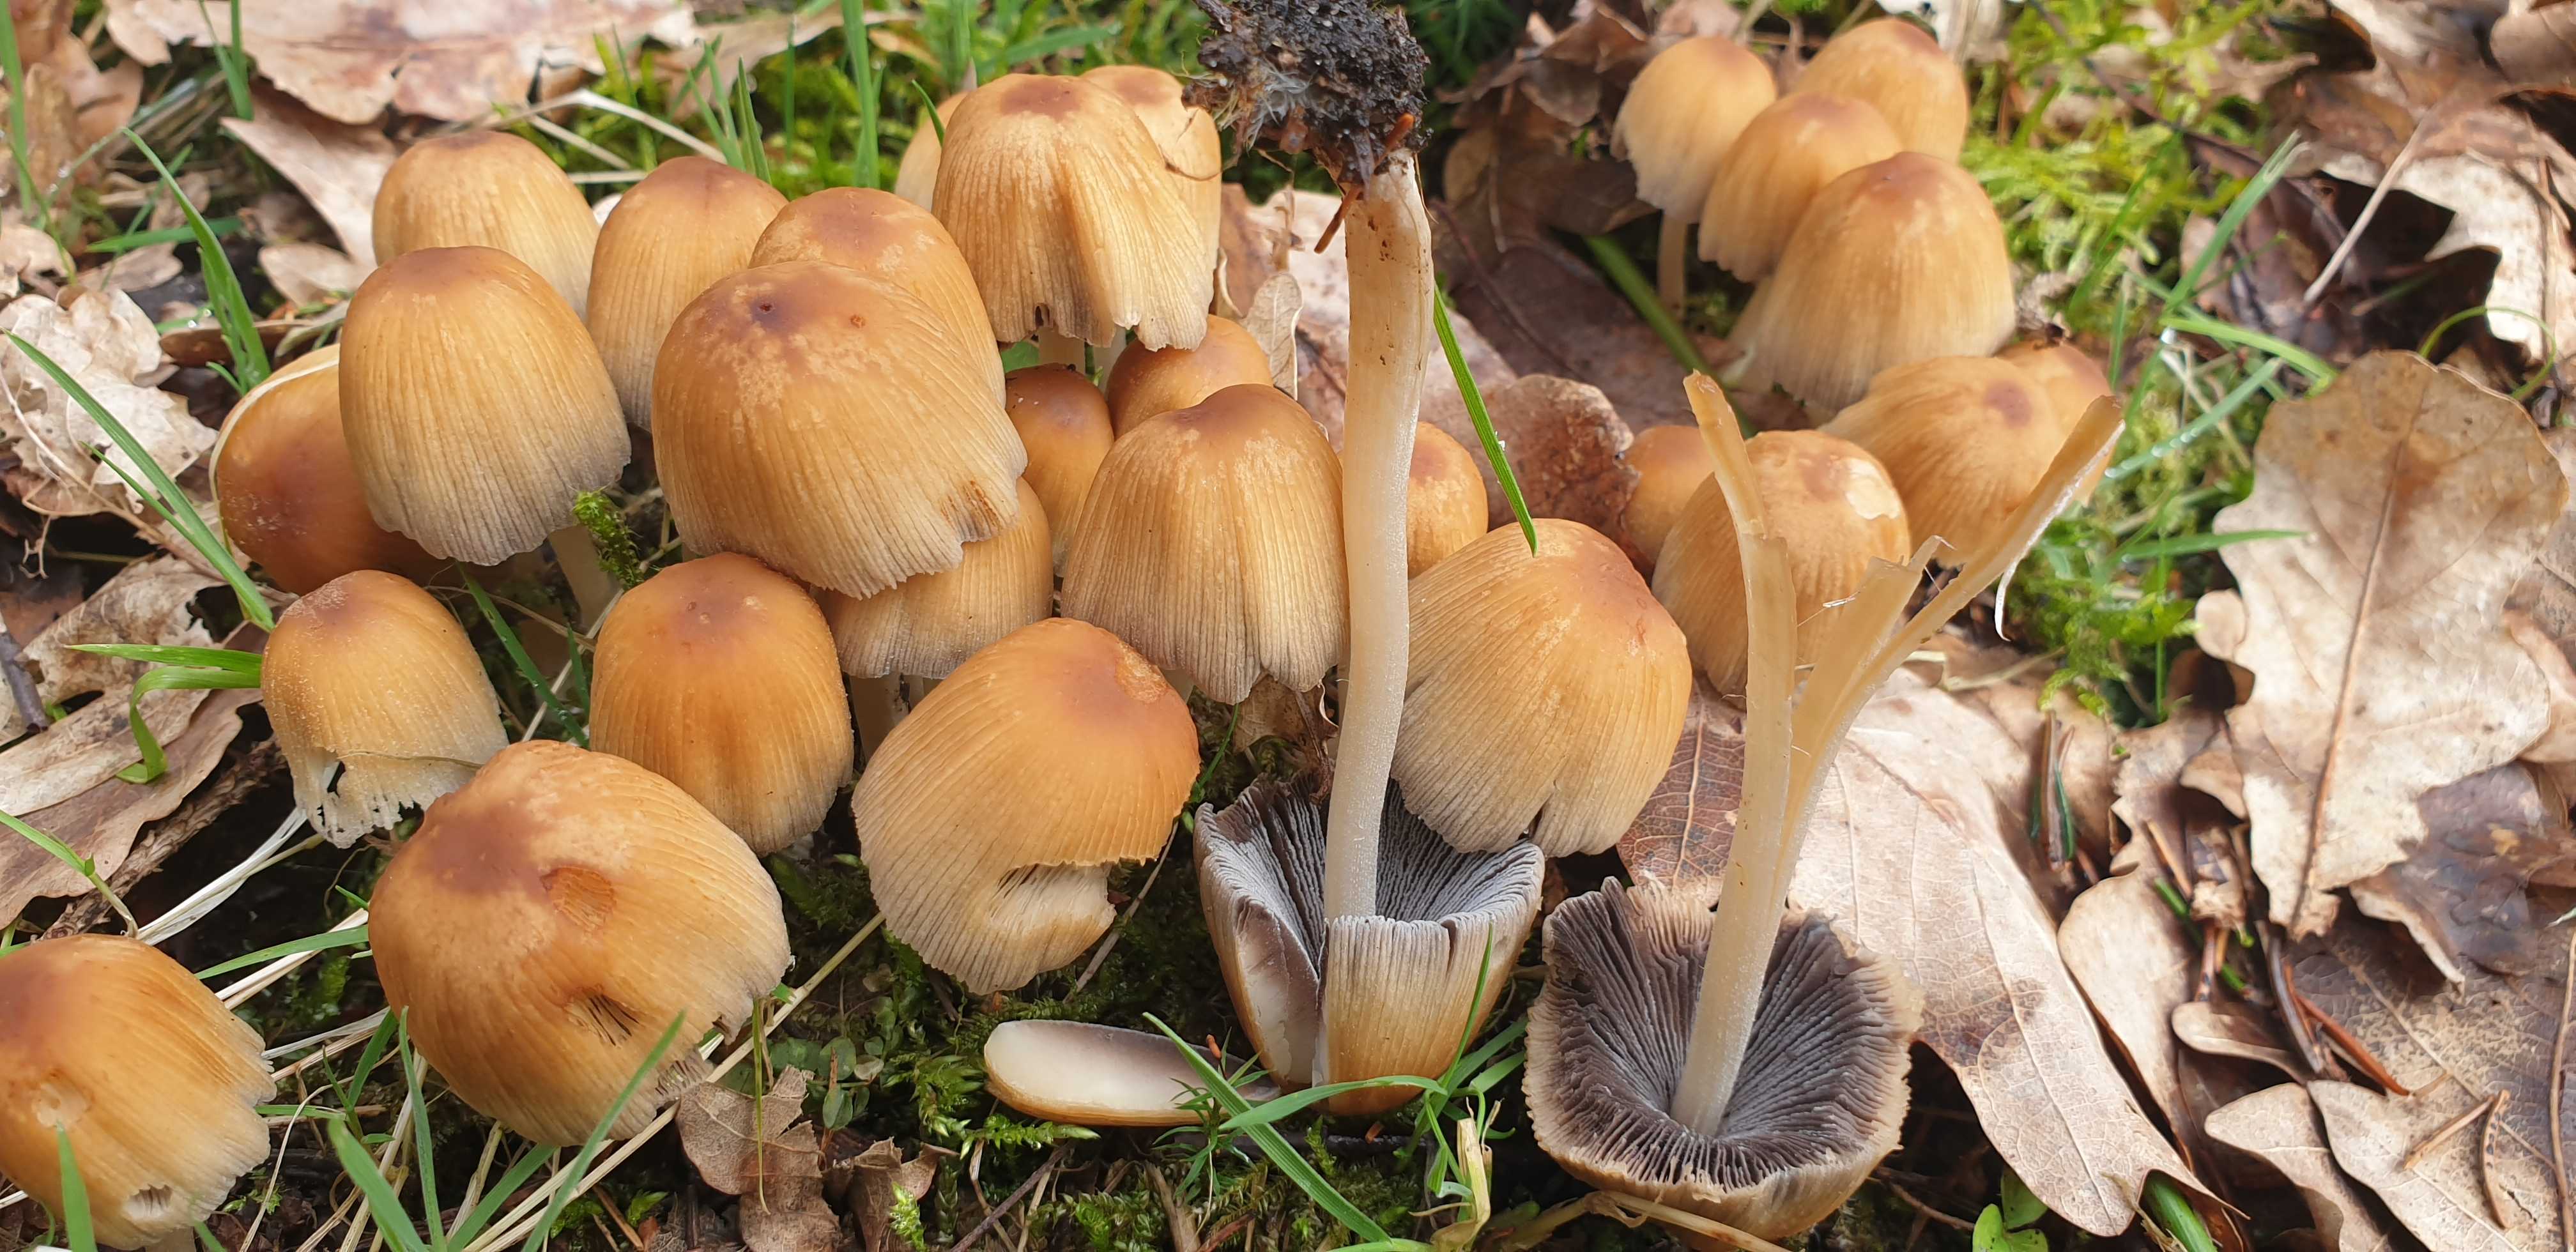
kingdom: Fungi
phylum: Basidiomycota
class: Agaricomycetes
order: Agaricales
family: Psathyrellaceae
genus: Coprinellus
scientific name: Coprinellus micaceus
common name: glimmer-blækhat
